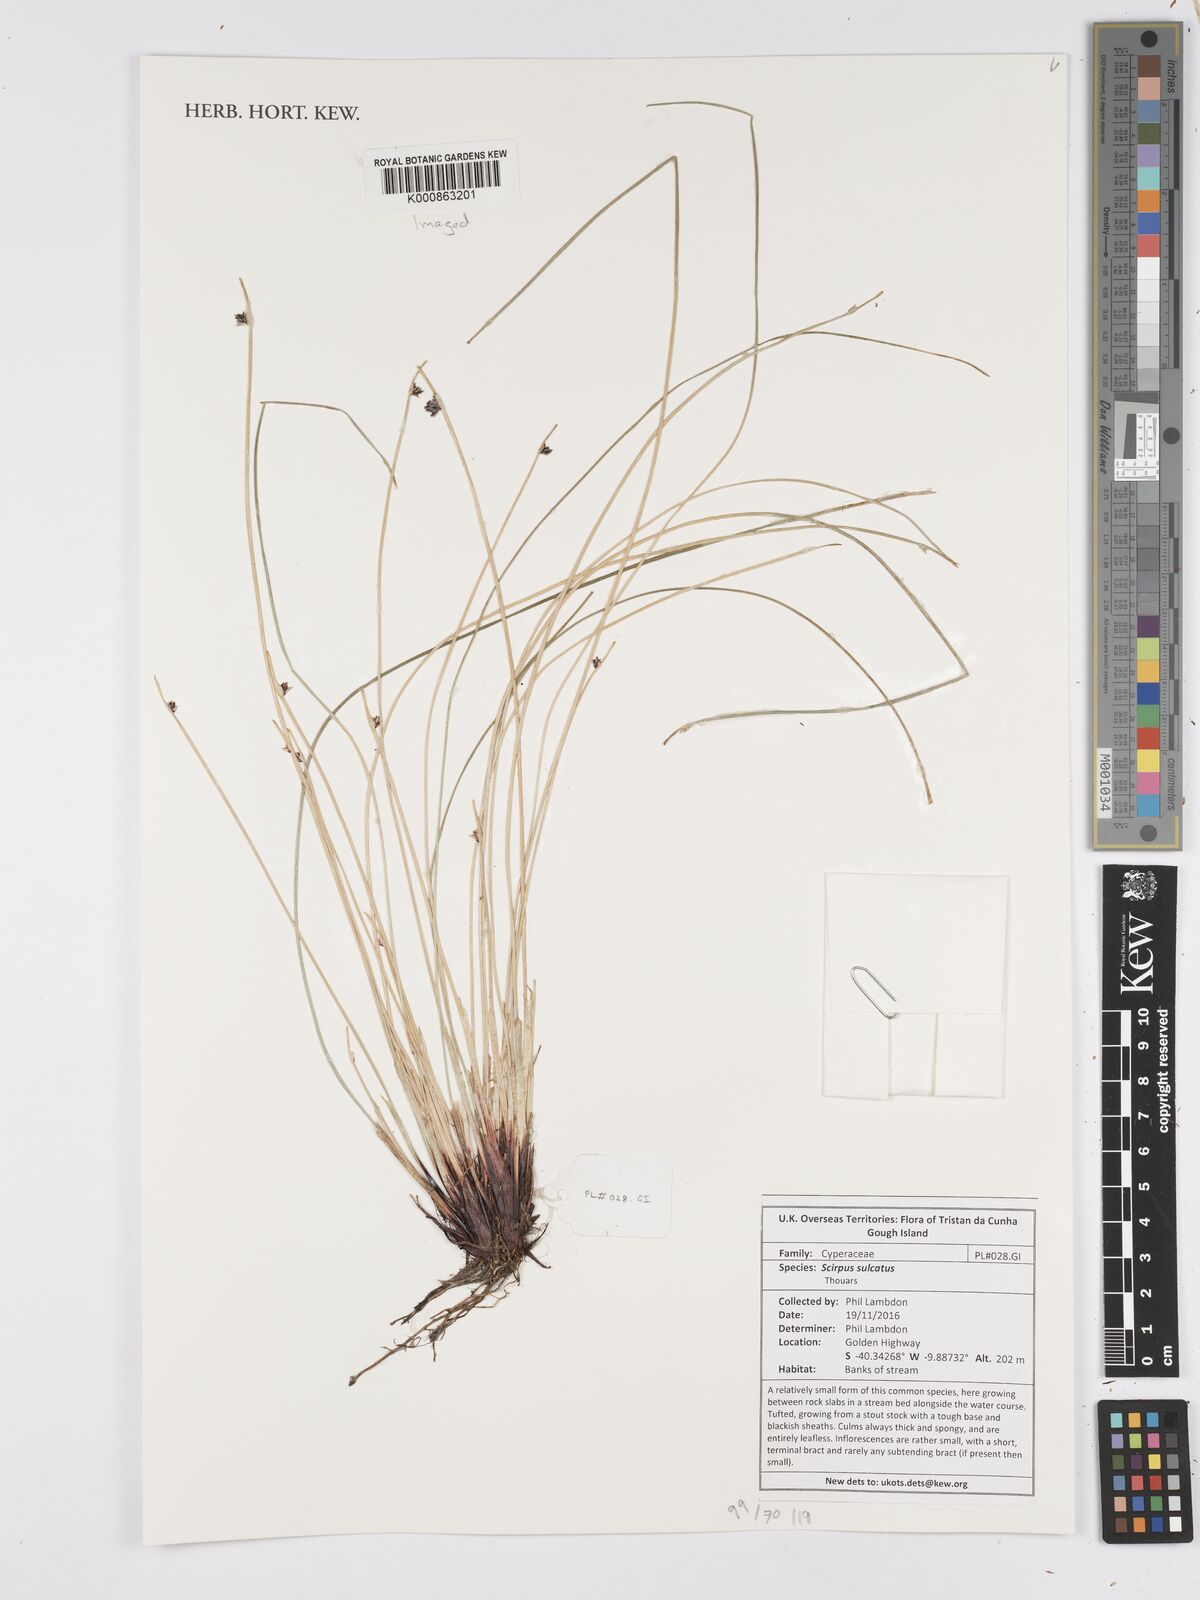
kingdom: Plantae
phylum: Tracheophyta
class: Liliopsida
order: Poales
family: Cyperaceae
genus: Isolepis
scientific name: Isolepis sulcata
